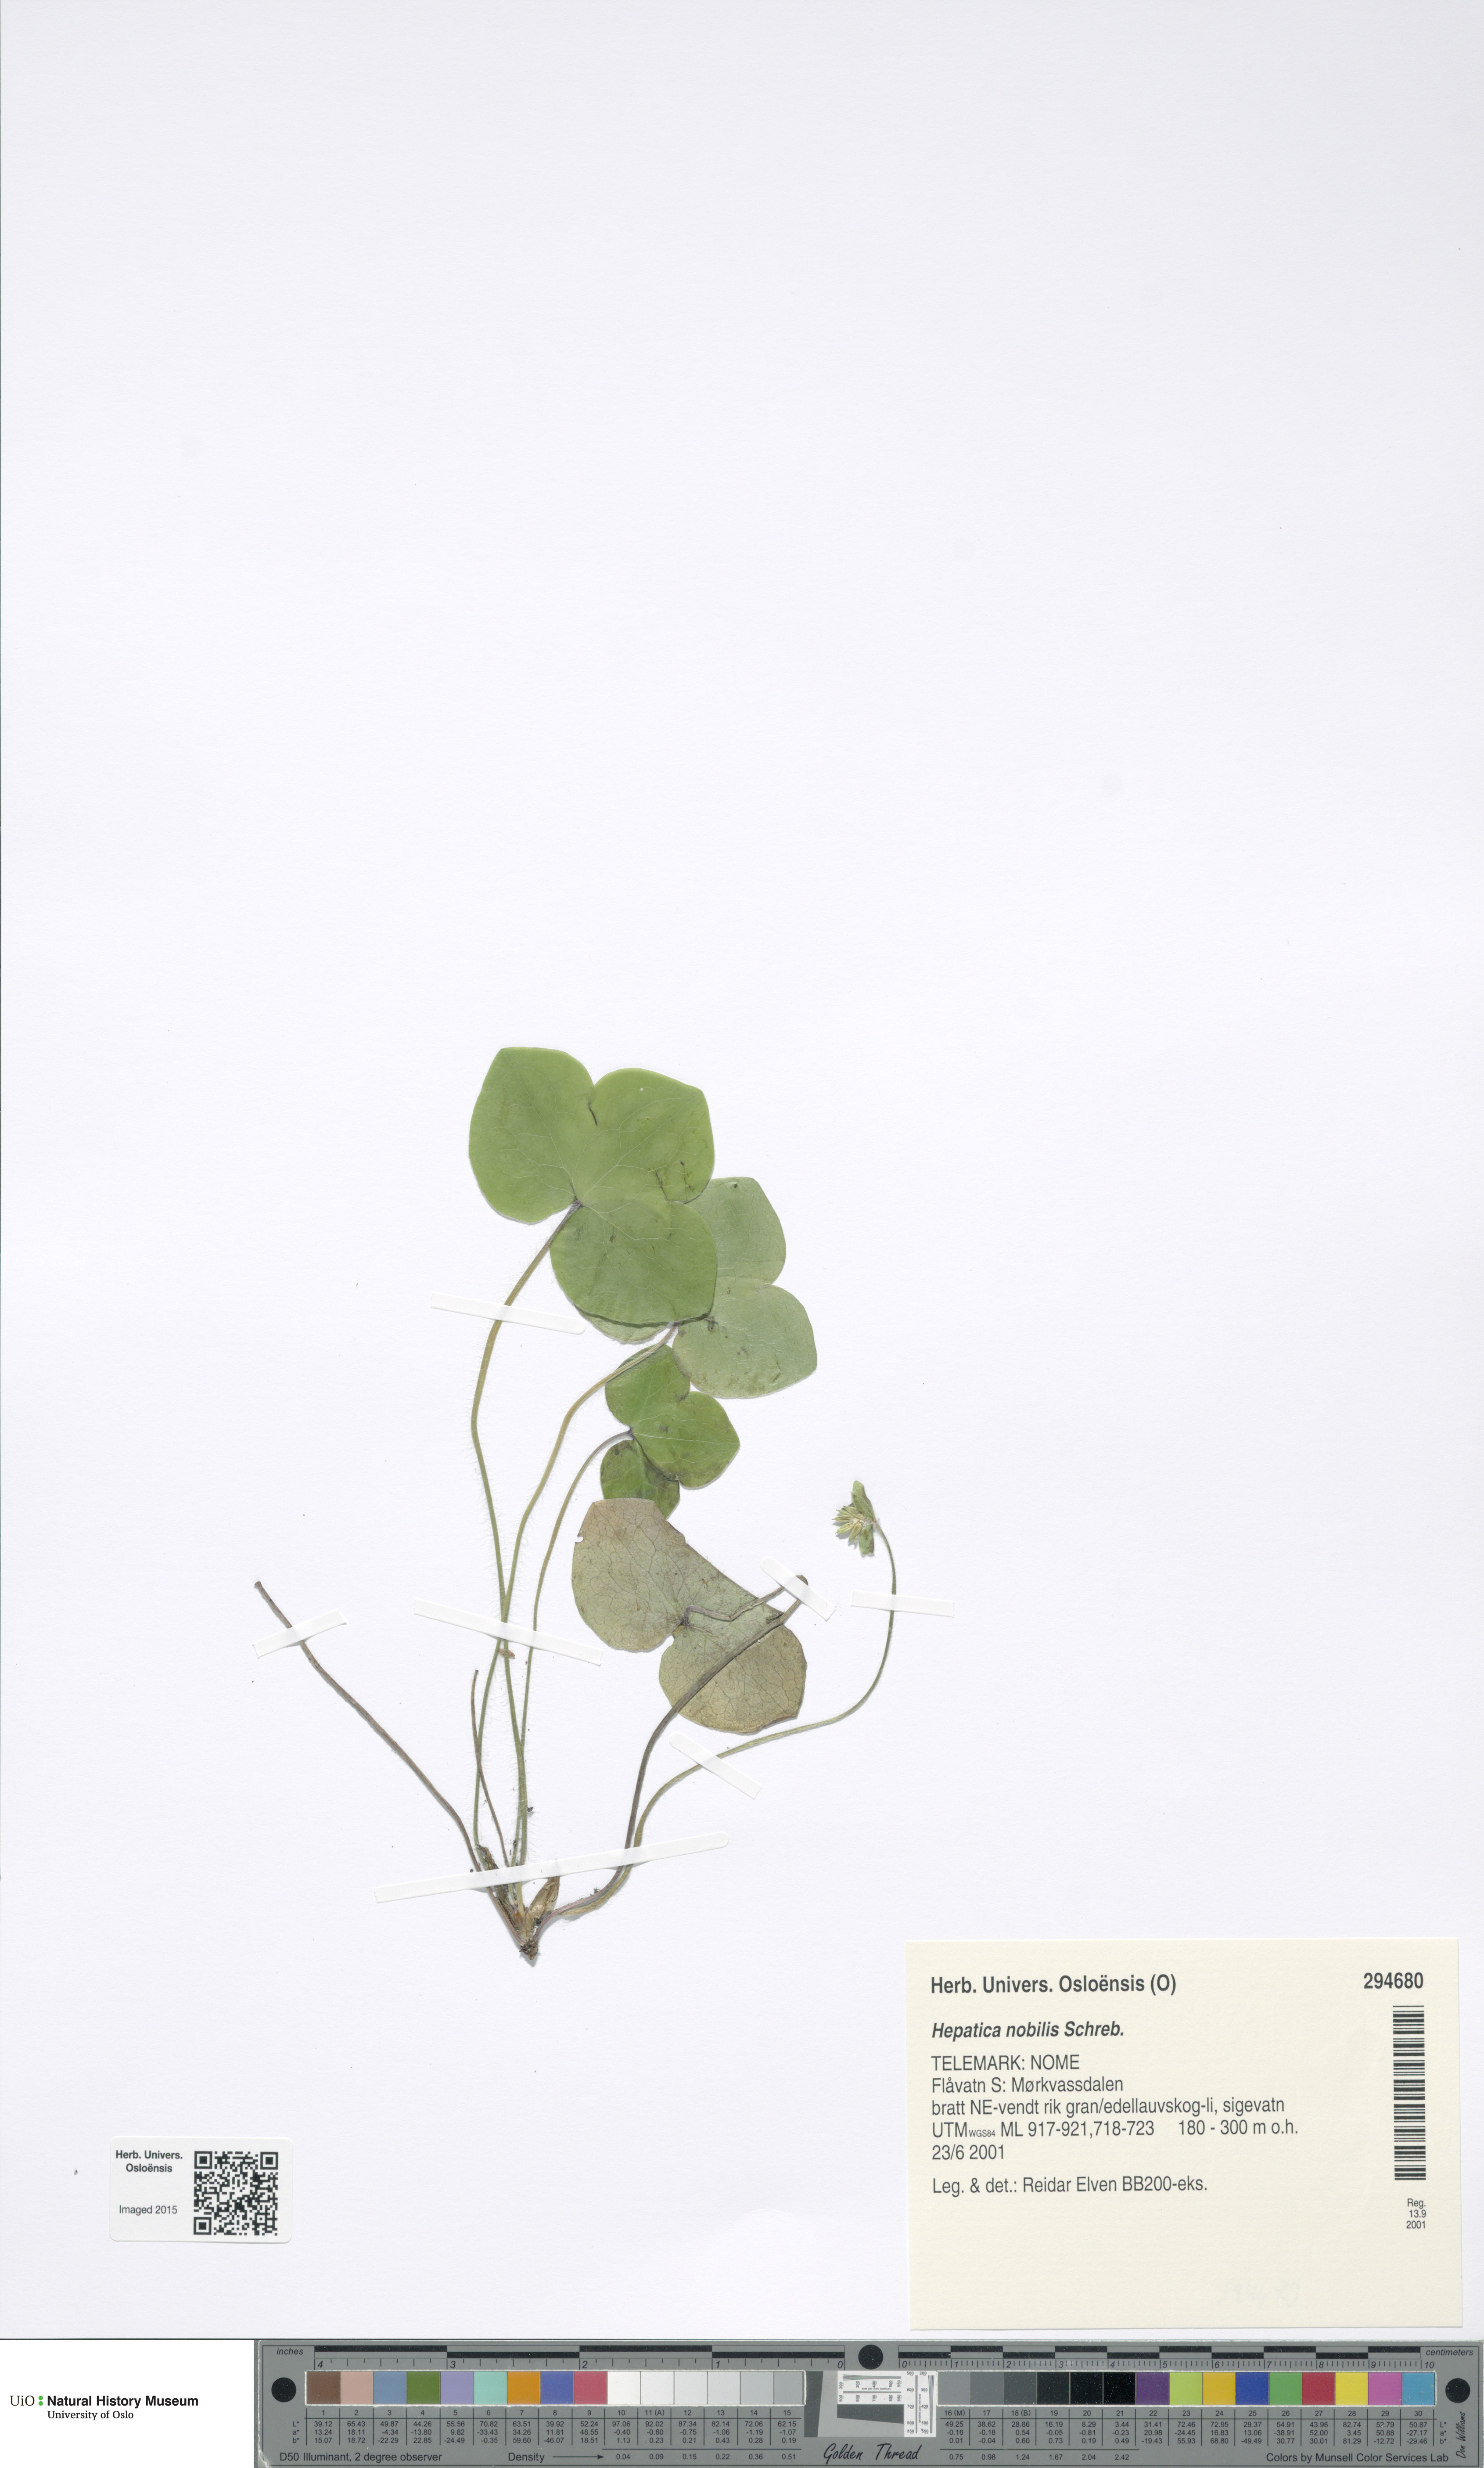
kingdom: Plantae
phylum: Tracheophyta
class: Magnoliopsida
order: Ranunculales
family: Ranunculaceae
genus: Hepatica
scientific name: Hepatica nobilis
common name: Liverleaf
